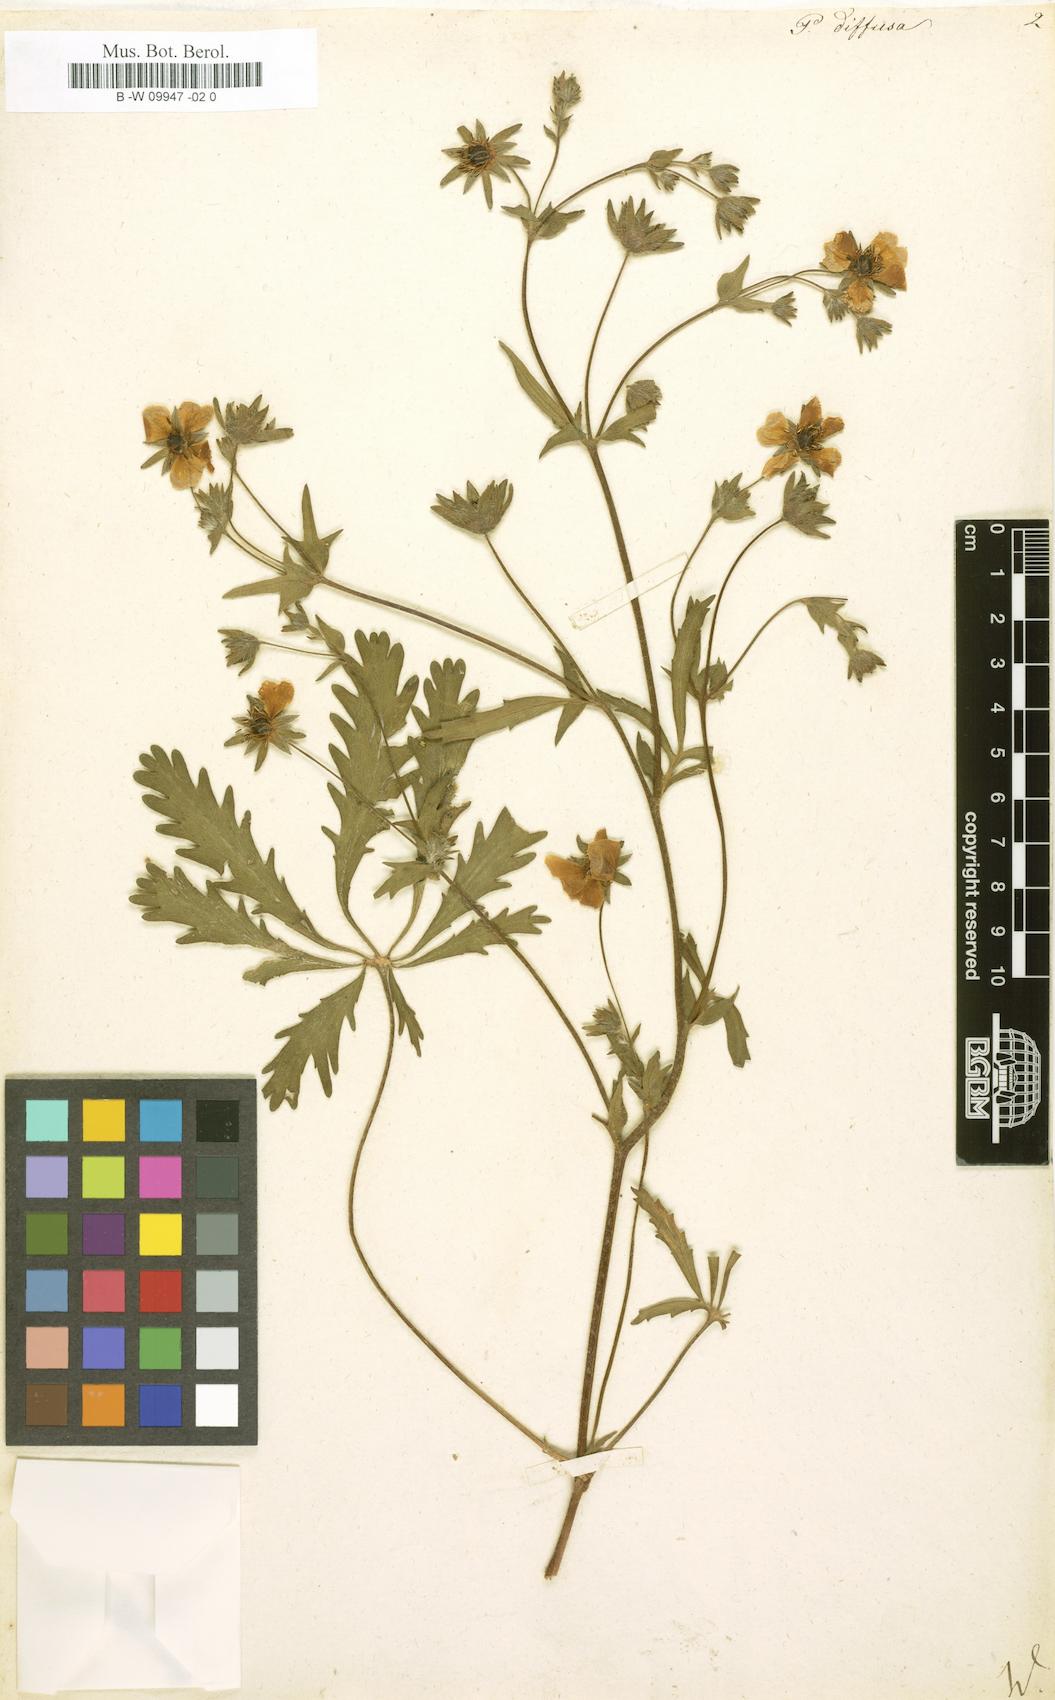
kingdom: Plantae
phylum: Tracheophyta
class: Magnoliopsida
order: Rosales
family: Rosaceae
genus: Potentilla
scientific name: Potentilla norvegica
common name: Ternate-leaved cinquefoil
